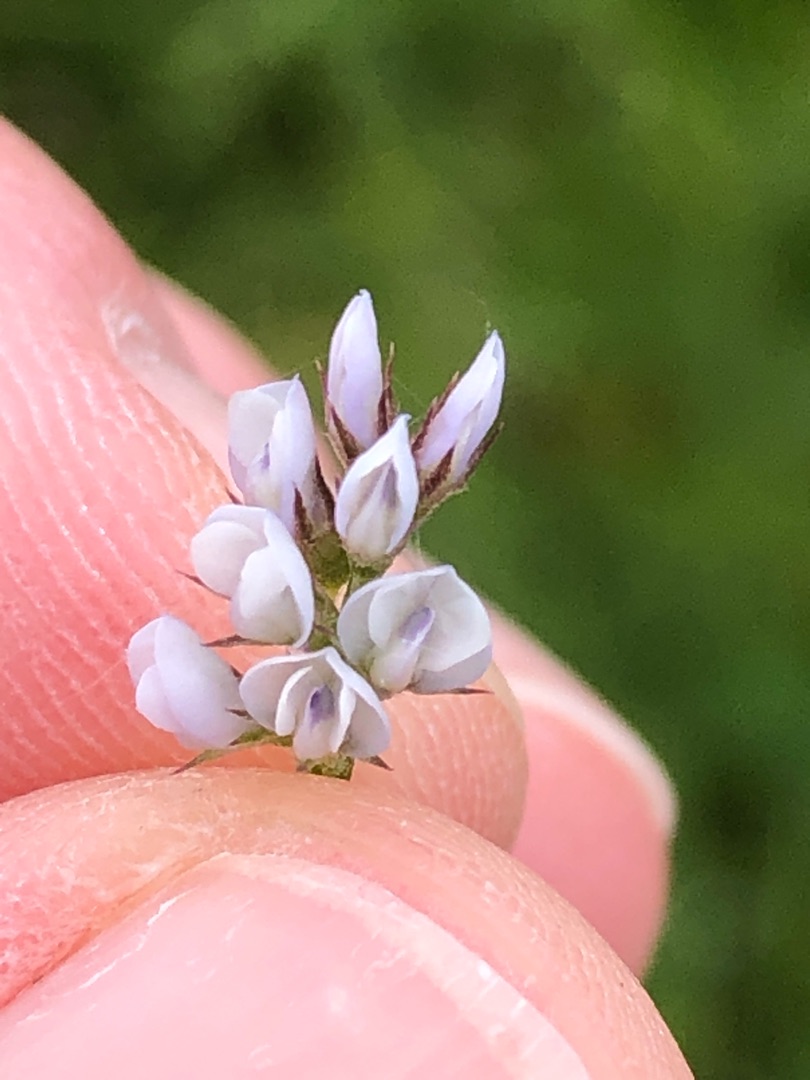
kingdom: Plantae
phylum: Tracheophyta
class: Magnoliopsida
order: Fabales
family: Fabaceae
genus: Vicia
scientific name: Vicia hirsuta
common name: Tofrøet vikke
